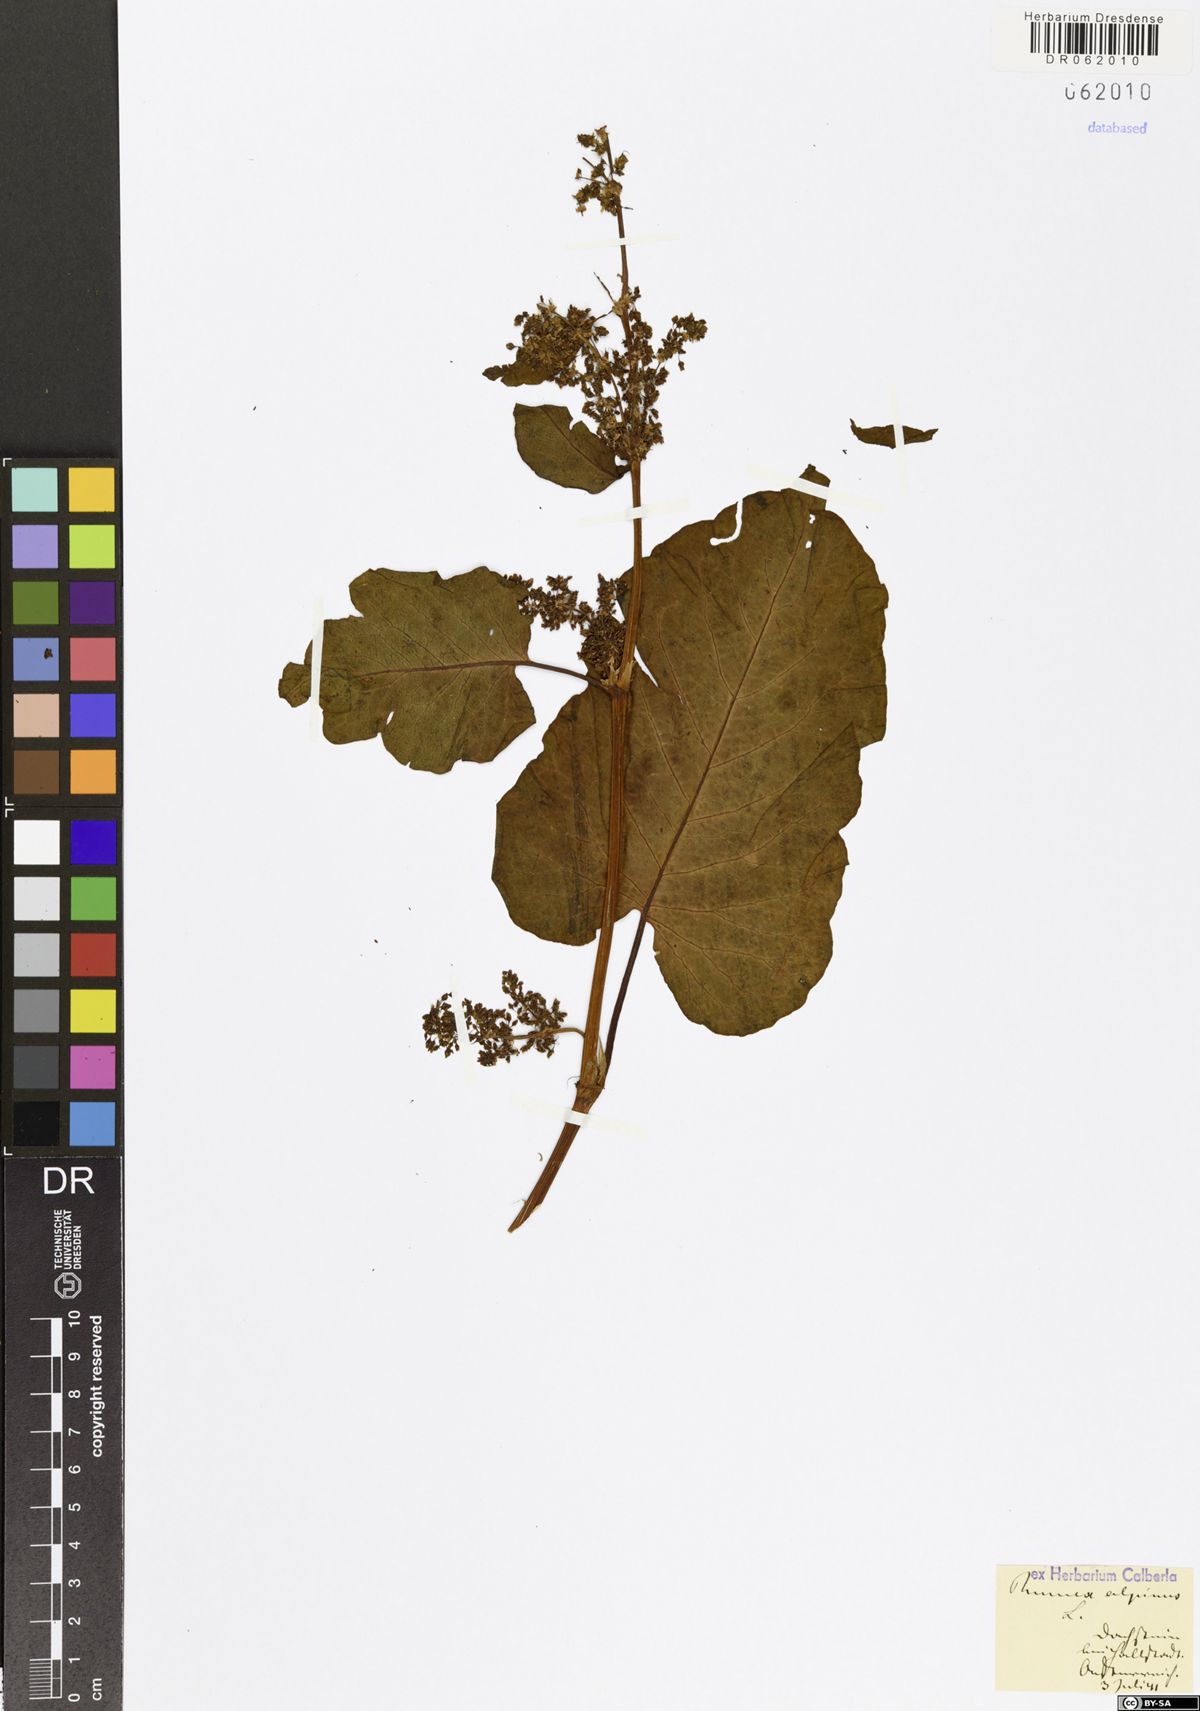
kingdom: Plantae
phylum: Tracheophyta
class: Magnoliopsida
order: Caryophyllales
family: Polygonaceae
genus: Rumex
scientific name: Rumex alpinus
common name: Alpine dock
